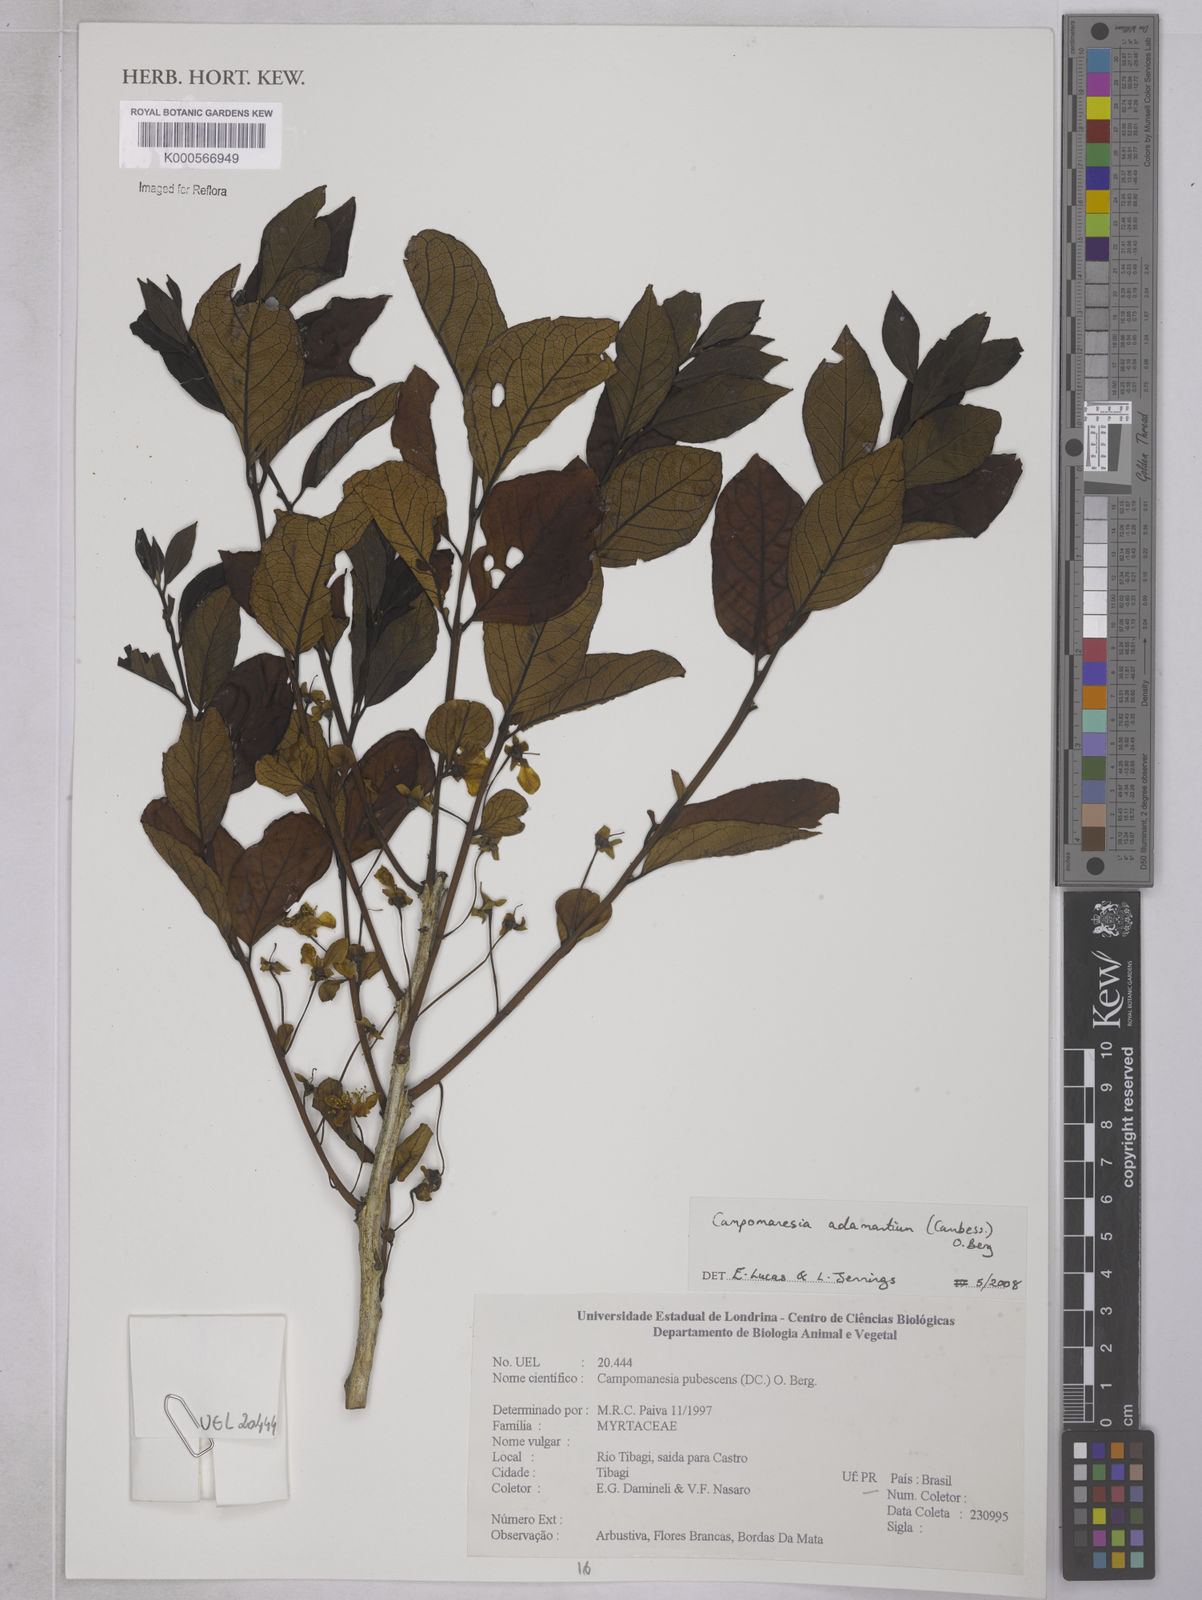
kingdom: Plantae
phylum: Tracheophyta
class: Magnoliopsida
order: Myrtales
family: Myrtaceae
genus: Campomanesia
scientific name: Campomanesia
